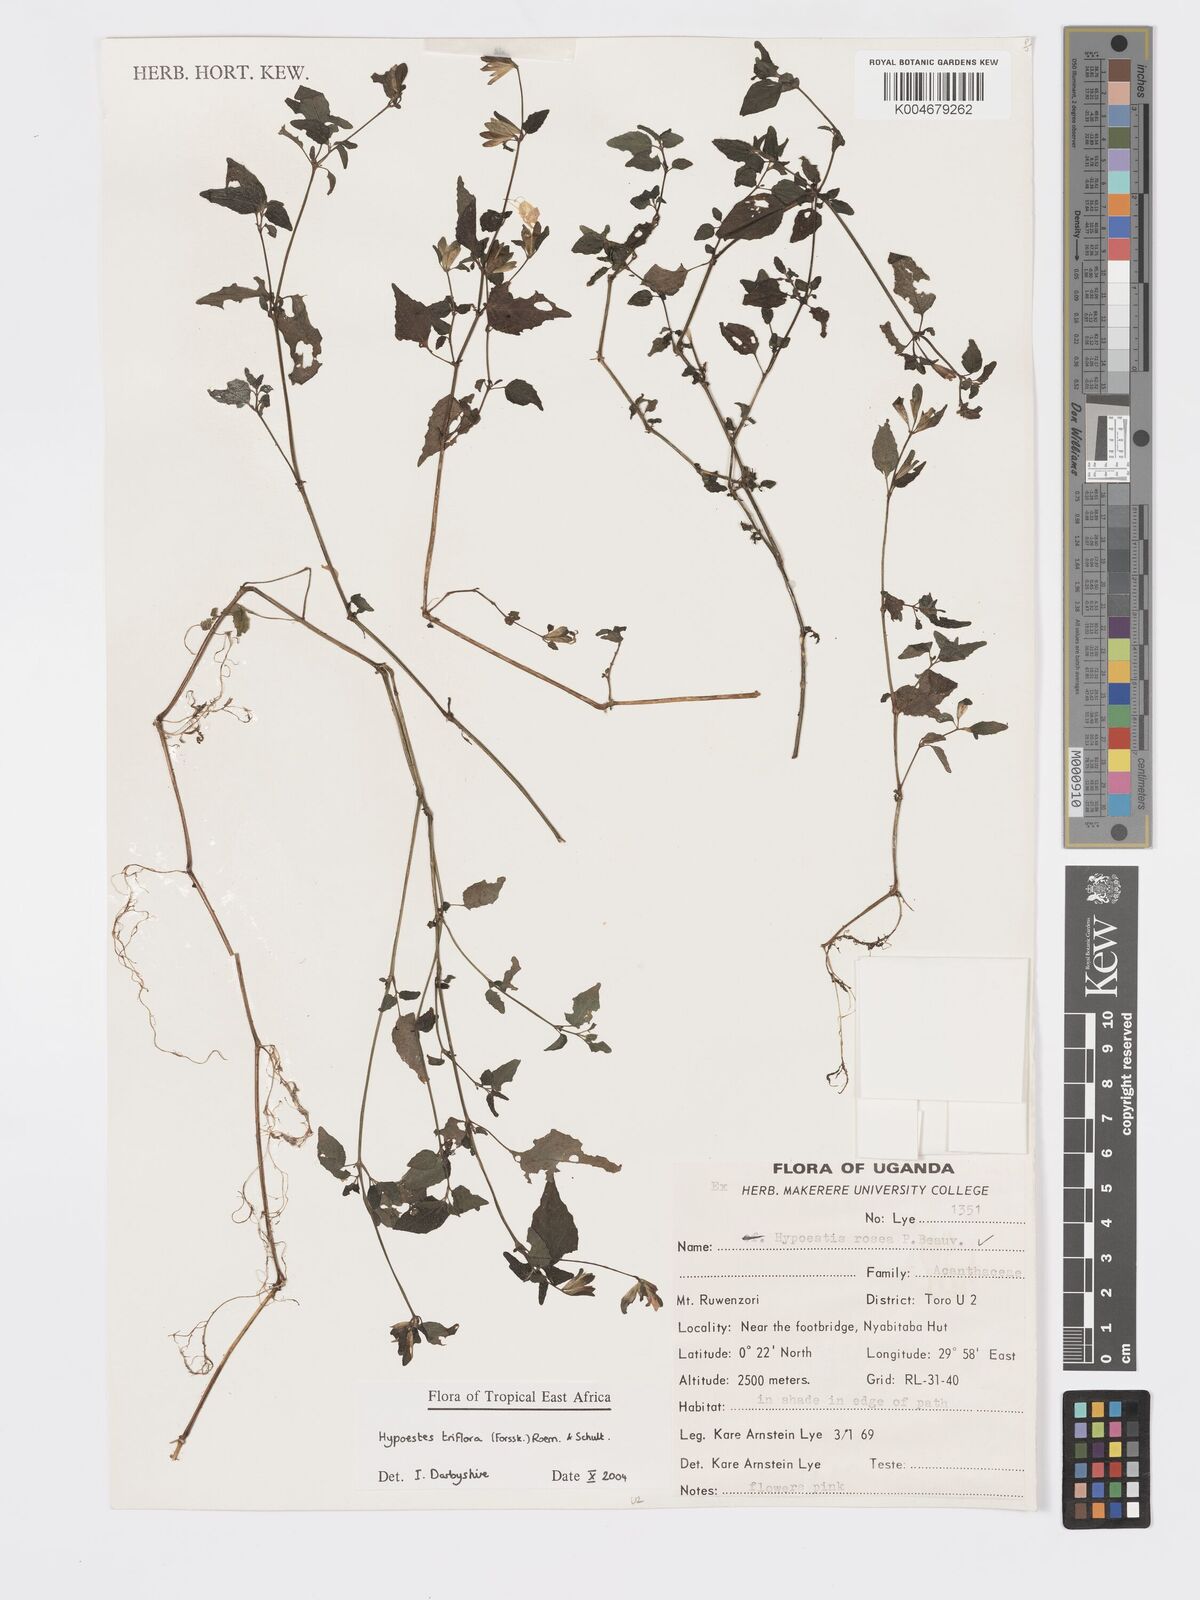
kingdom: Plantae
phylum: Tracheophyta
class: Magnoliopsida
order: Lamiales
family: Acanthaceae
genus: Hypoestes
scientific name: Hypoestes triflora
